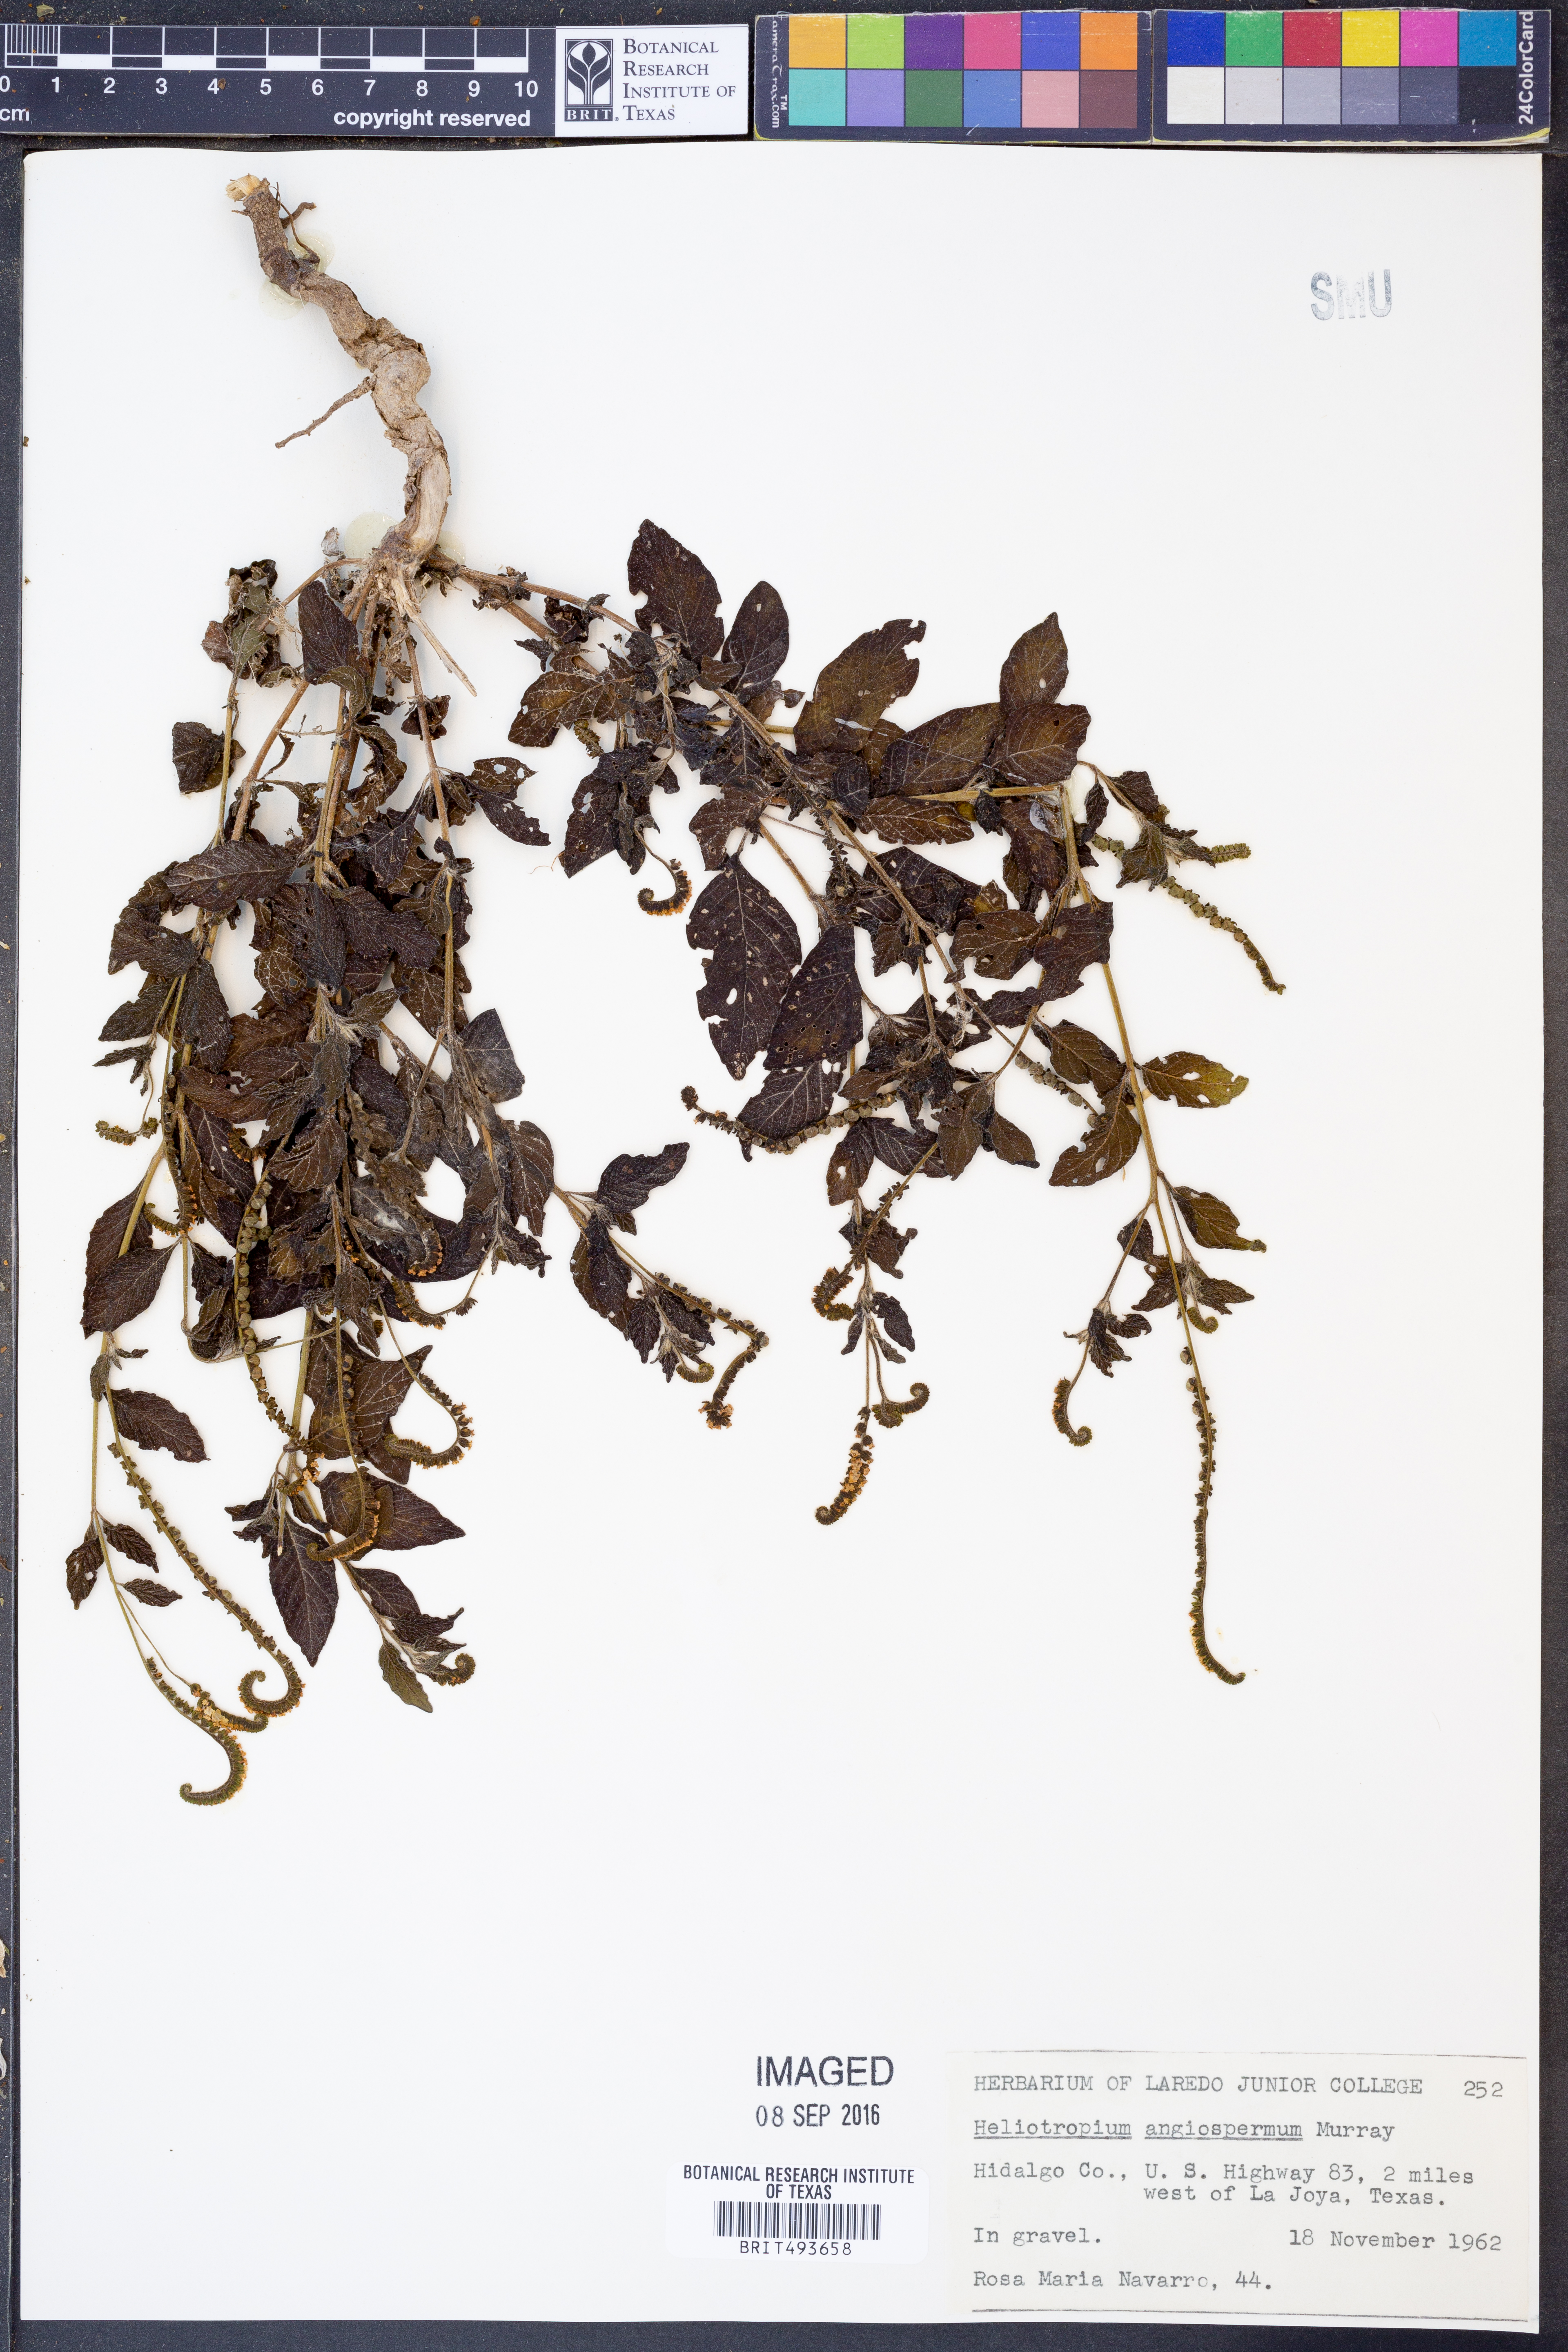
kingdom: Plantae
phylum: Tracheophyta
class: Magnoliopsida
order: Boraginales
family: Heliotropiaceae
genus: Heliotropium
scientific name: Heliotropium angiospermum
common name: Eye bright
